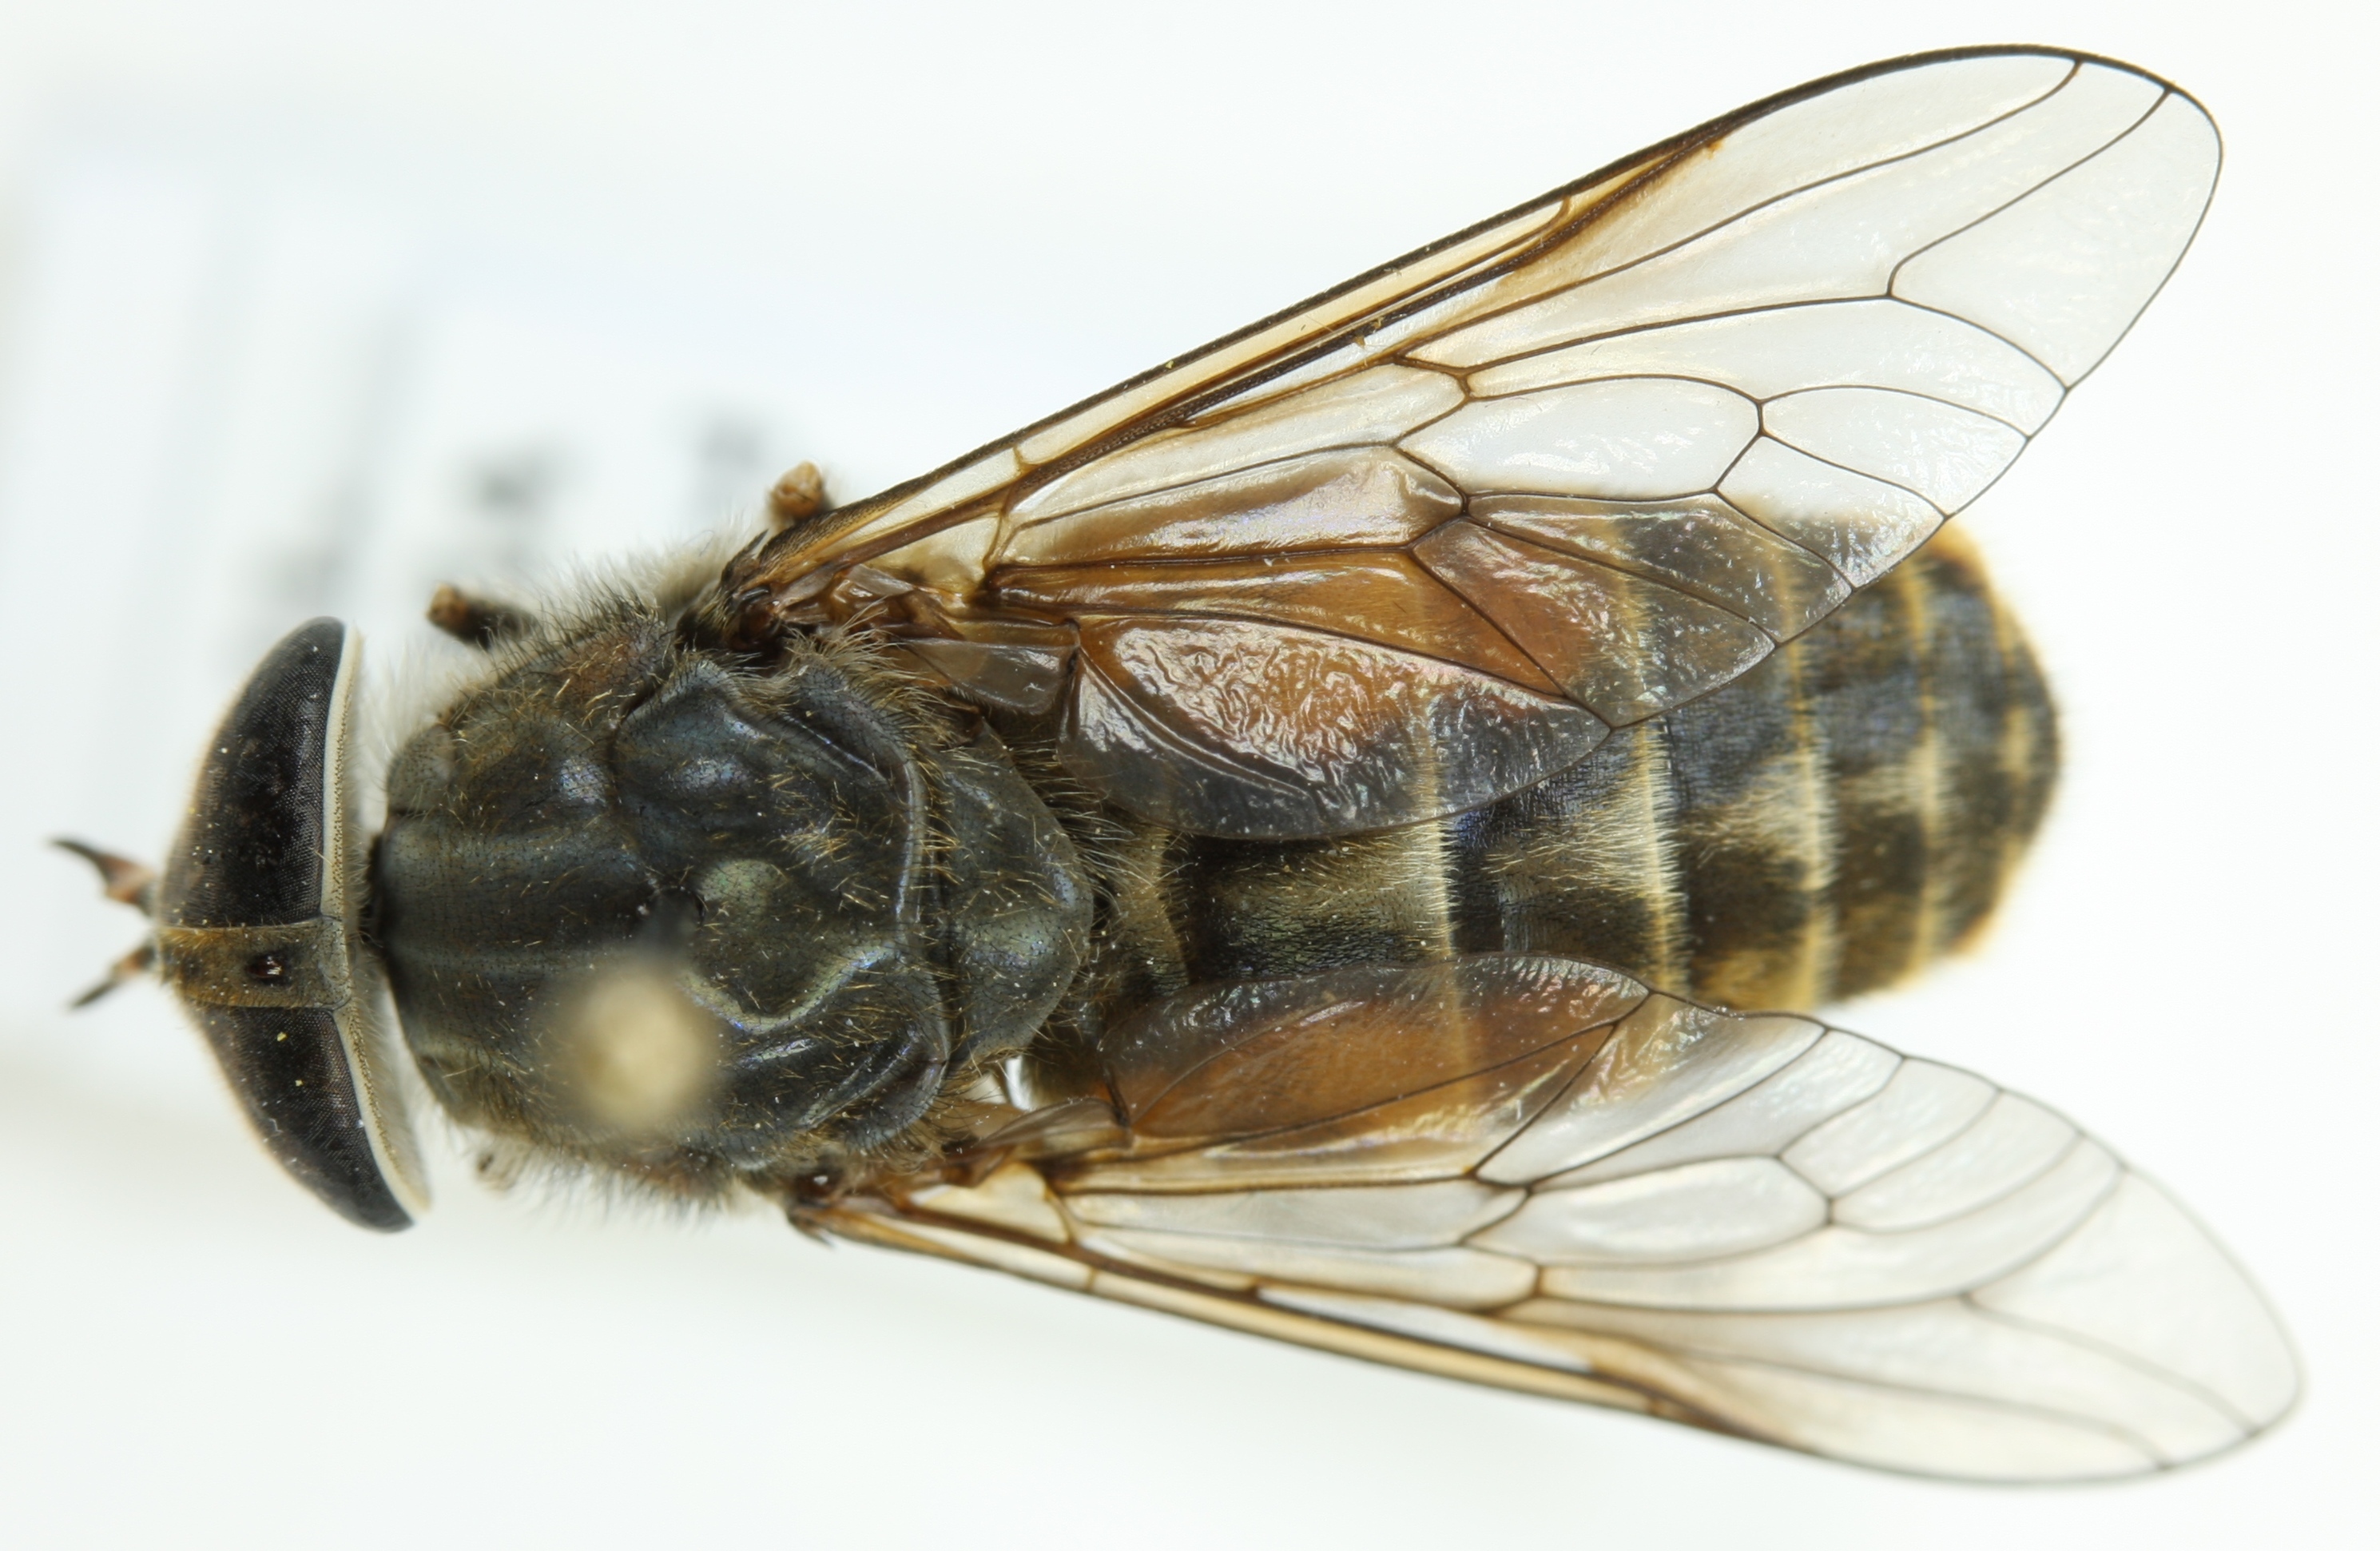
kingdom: Animalia
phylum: Arthropoda
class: Insecta
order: Diptera
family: Tabanidae
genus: Hybomitra
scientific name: Hybomitra muhlfeldi
